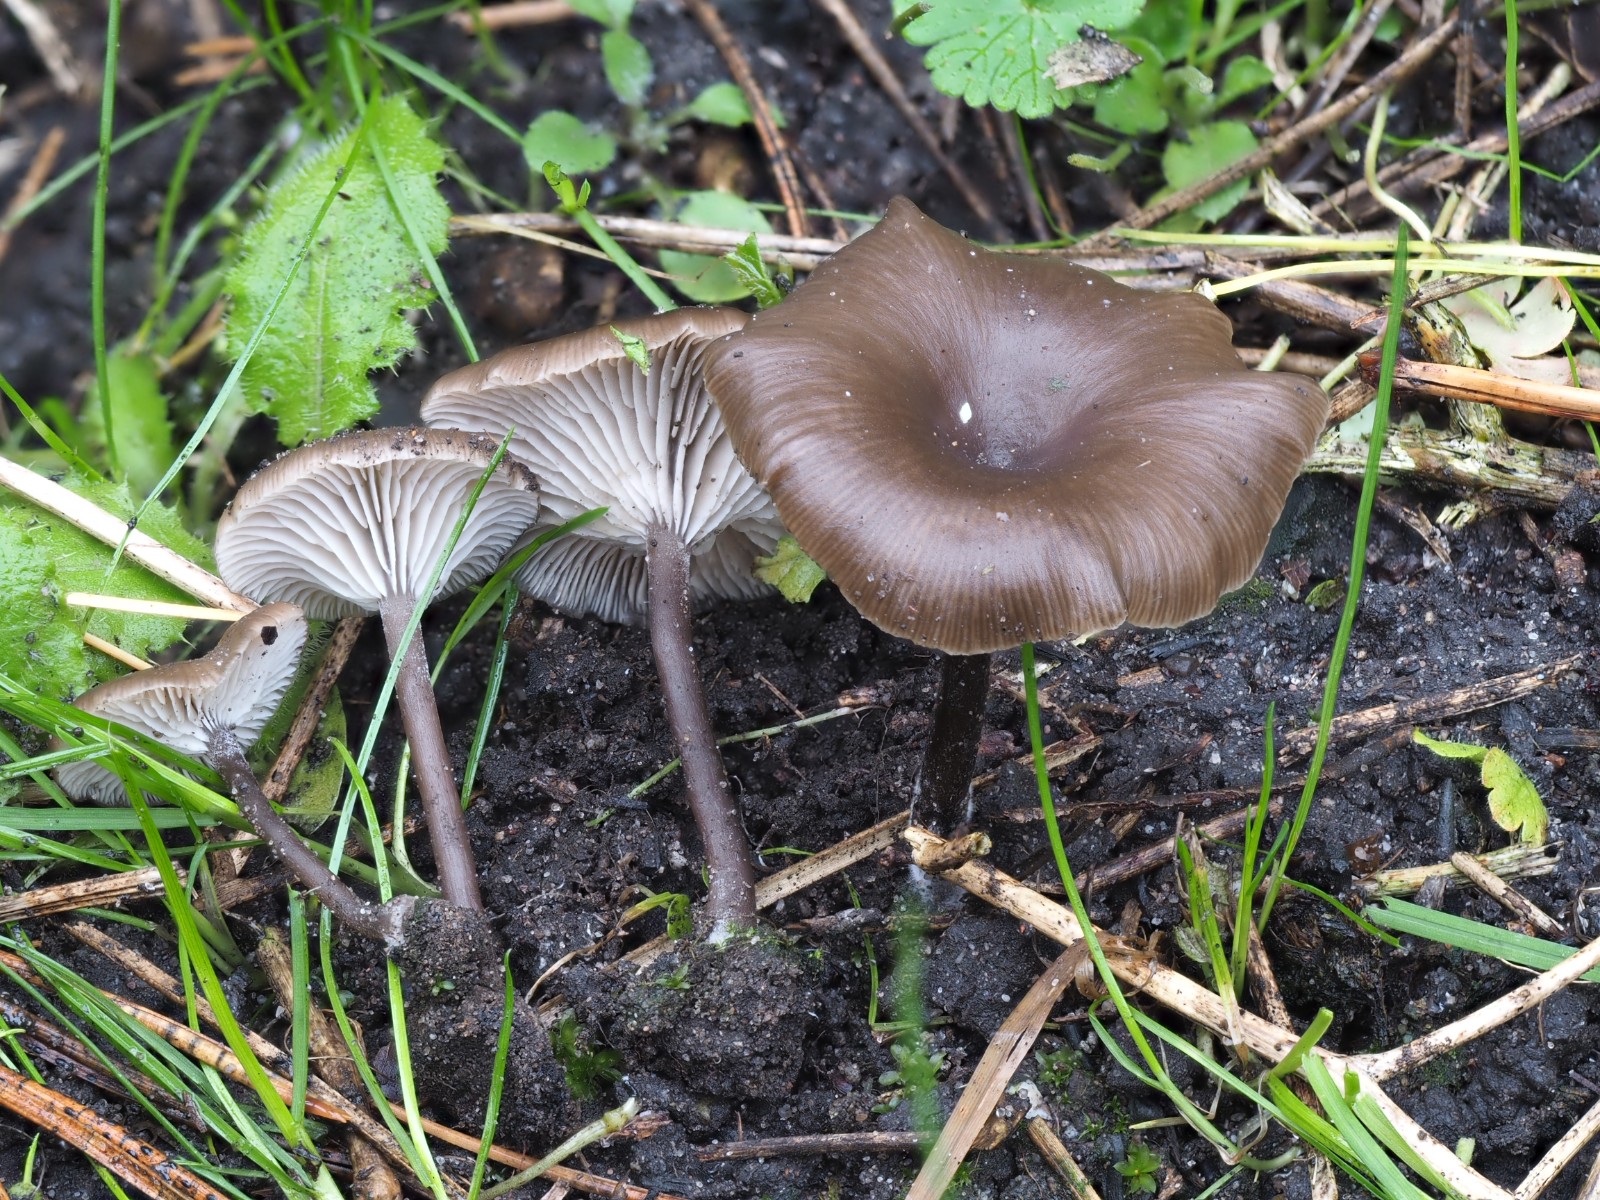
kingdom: Fungi
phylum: Basidiomycota
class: Agaricomycetes
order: Agaricales
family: Tricholomataceae
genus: Myxomphalia
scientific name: Myxomphalia maura
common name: kulhat
